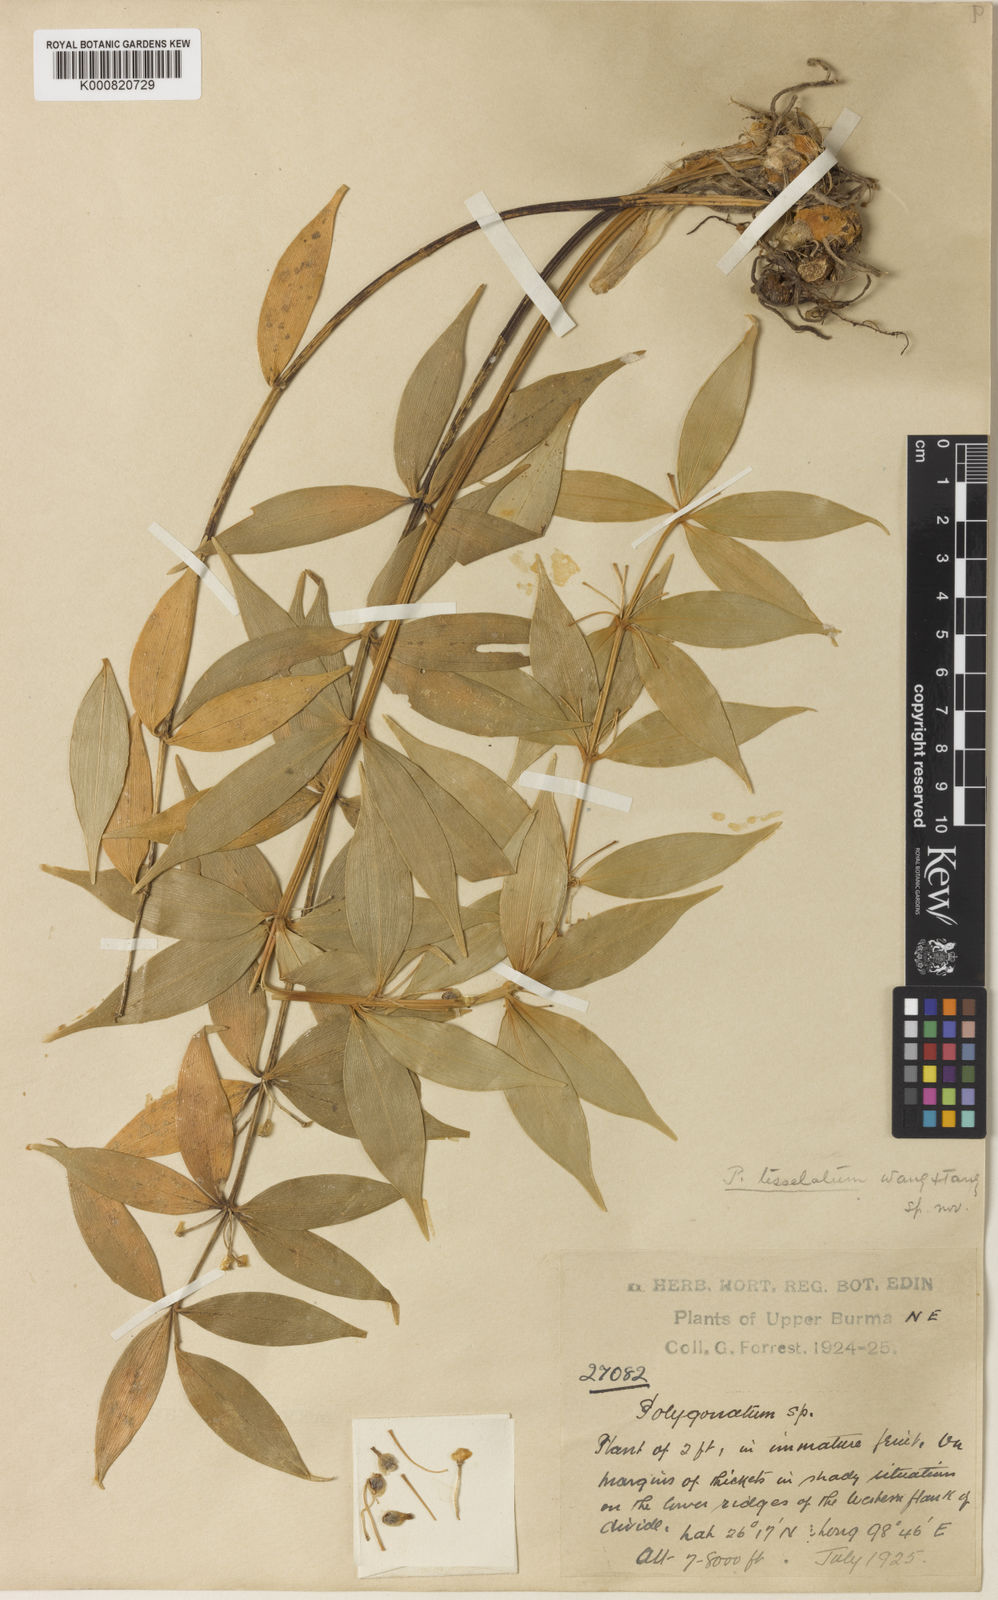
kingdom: Plantae
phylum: Tracheophyta
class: Liliopsida
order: Asparagales
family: Asparagaceae
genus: Polygonatum
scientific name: Polygonatum tessellatum
